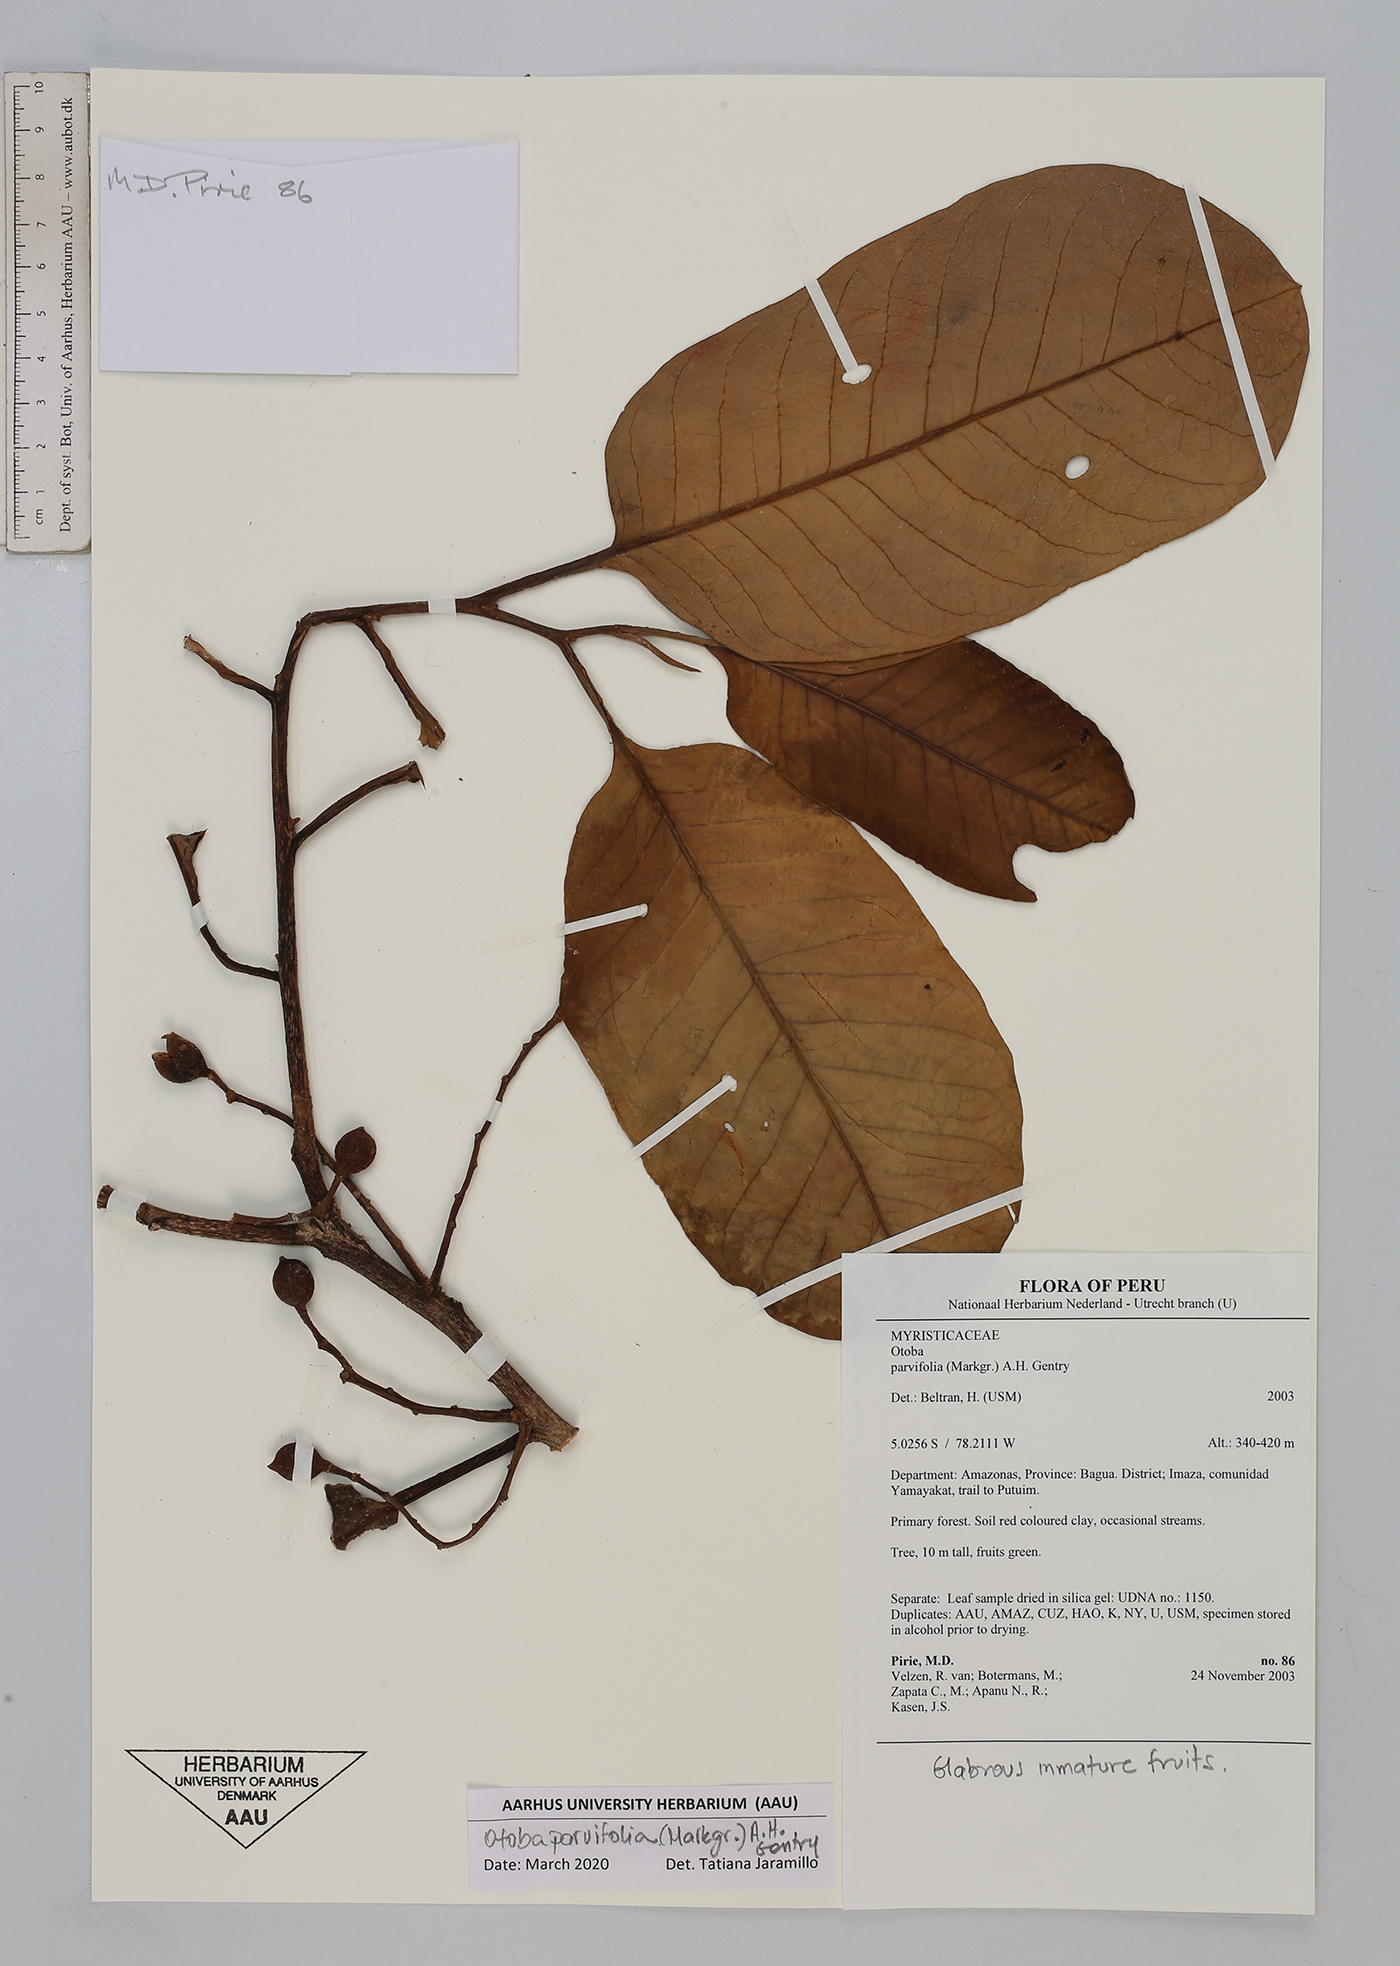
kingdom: Plantae
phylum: Tracheophyta
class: Magnoliopsida
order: Magnoliales
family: Myristicaceae
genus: Otoba
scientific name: Otoba parvifolia
